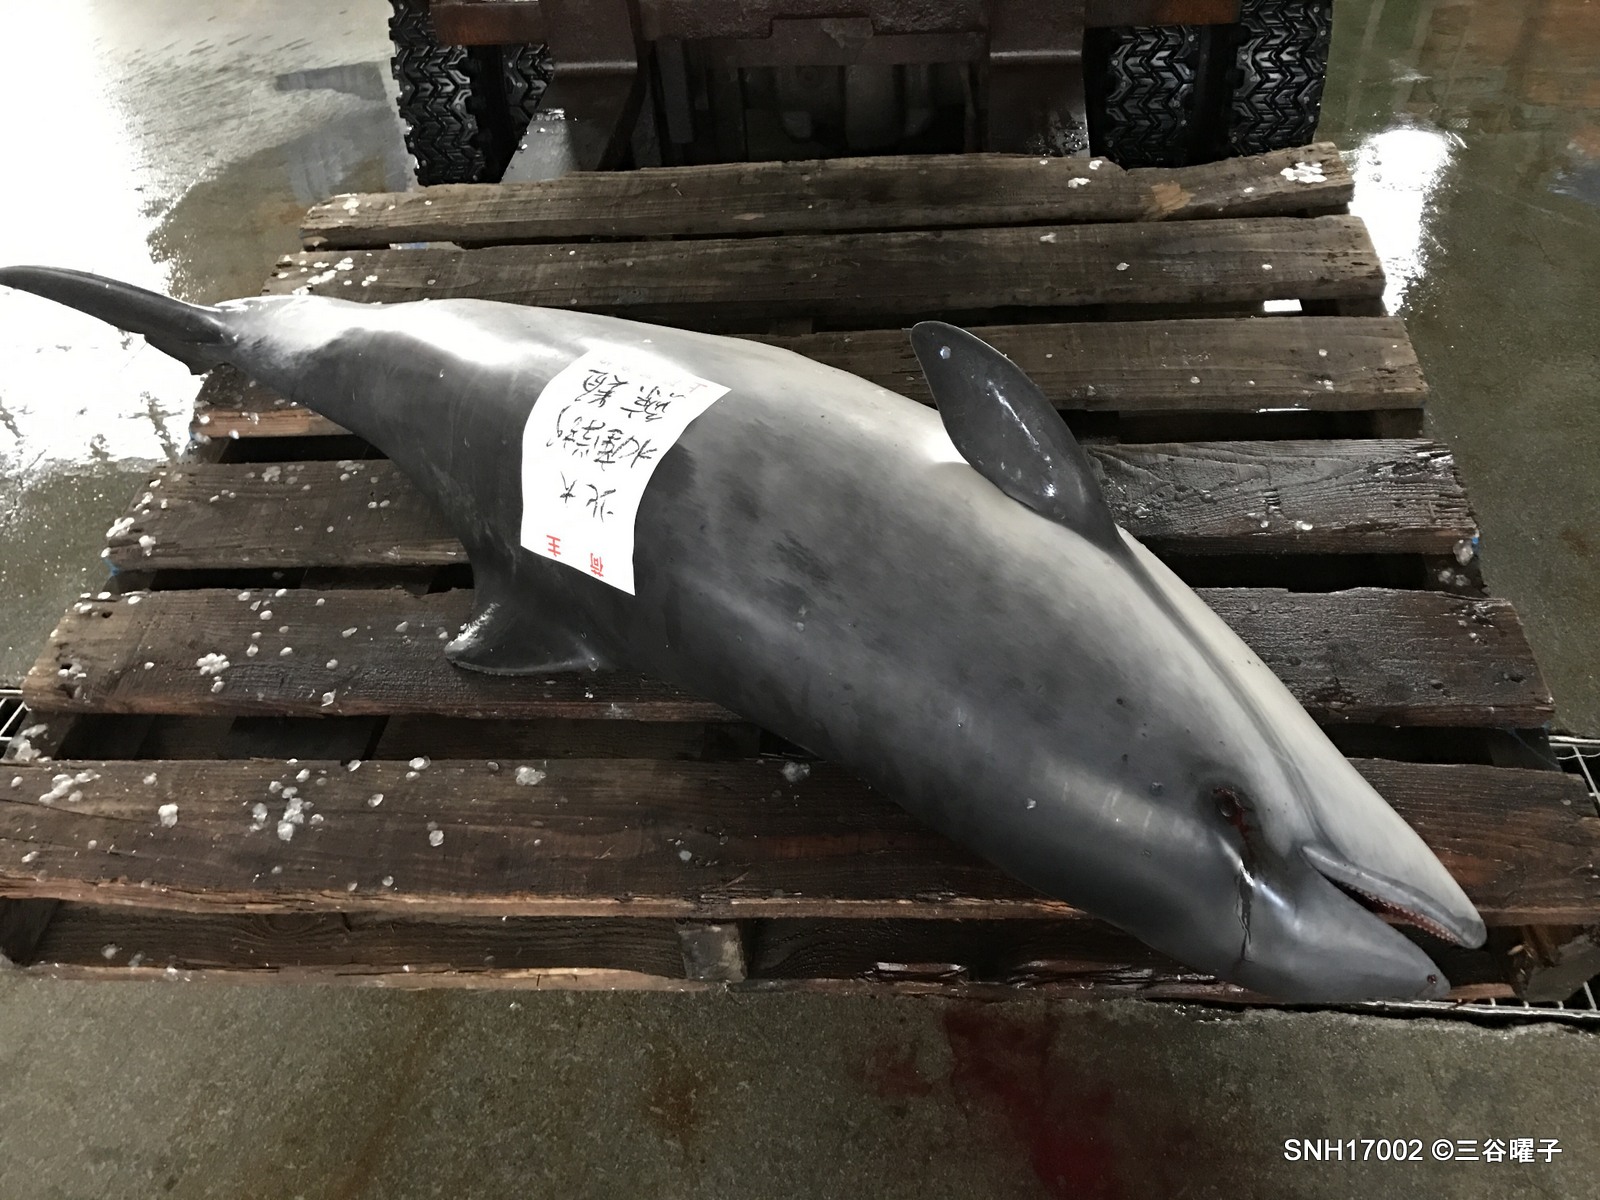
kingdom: Animalia
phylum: Chordata
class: Mammalia
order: Cetacea
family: Phocoenidae
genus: Phocoena
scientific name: Phocoena phocoena
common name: Harbour porpoise
